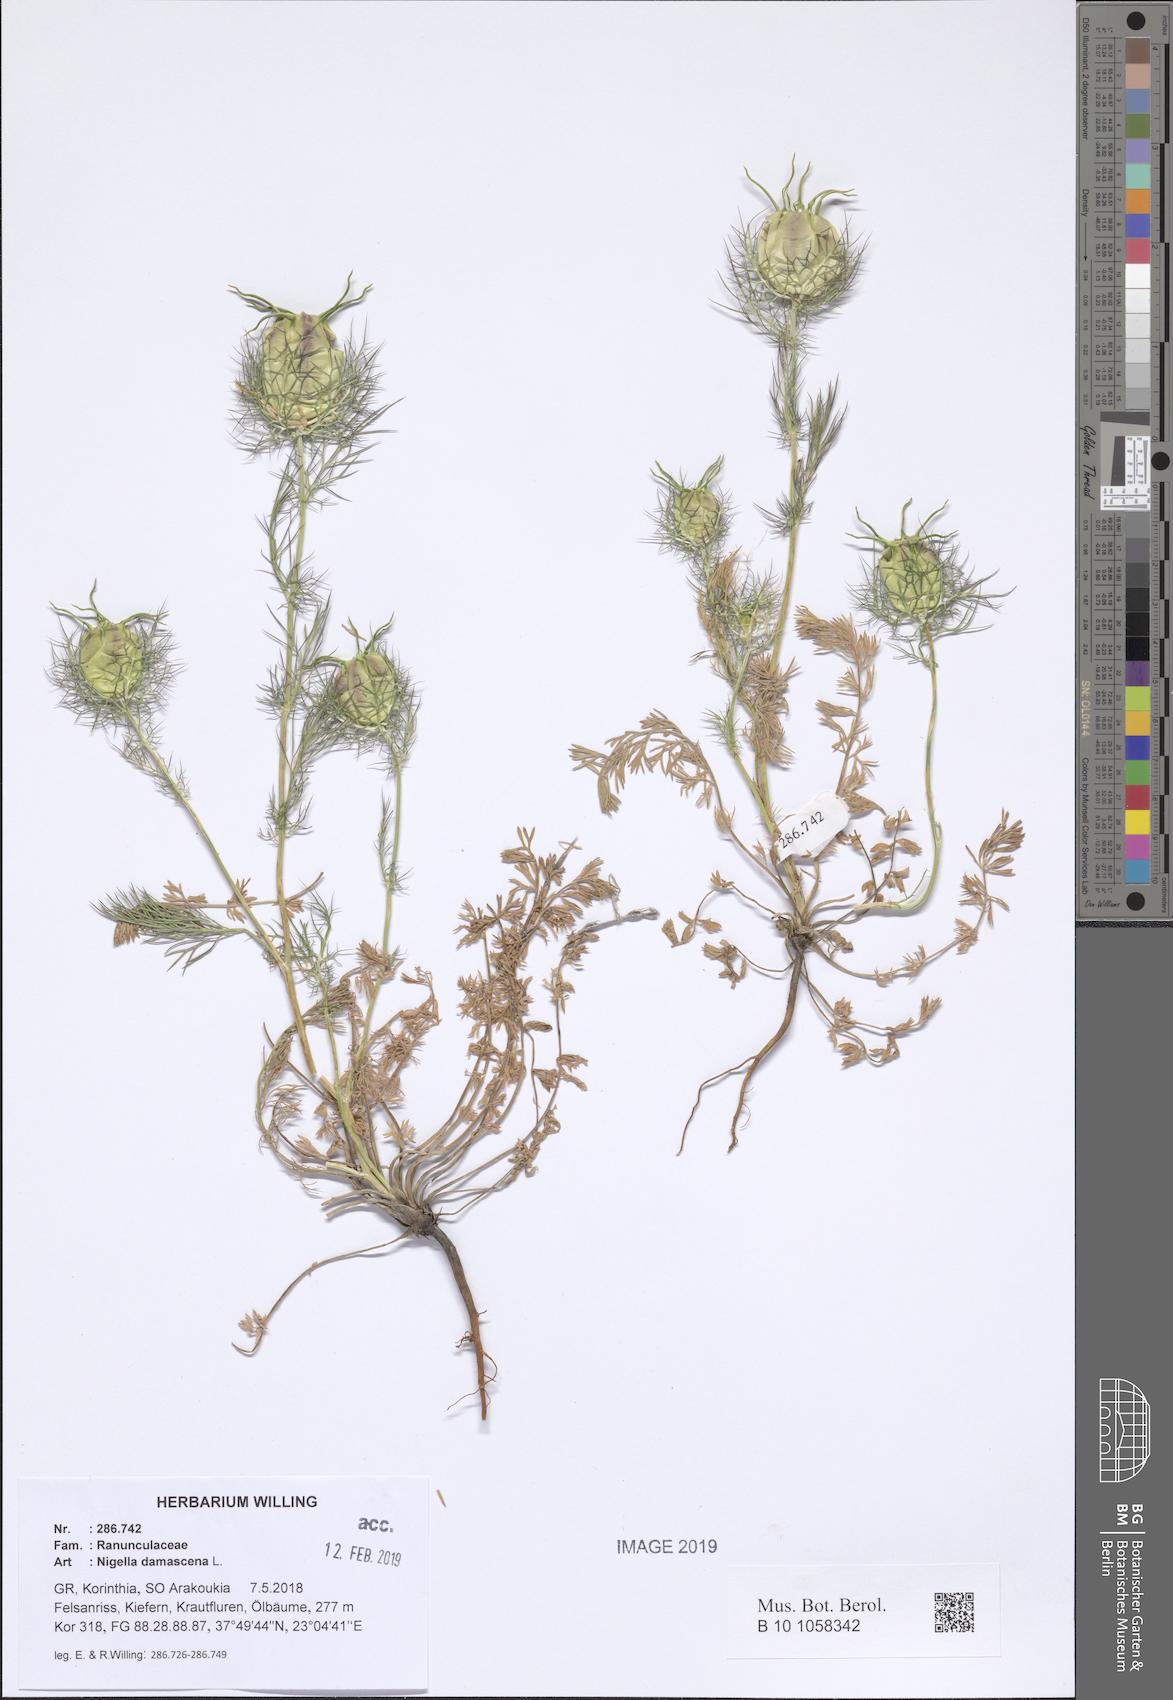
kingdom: Plantae
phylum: Tracheophyta
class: Magnoliopsida
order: Ranunculales
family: Ranunculaceae
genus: Nigella
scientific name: Nigella damascena
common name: Love-in-a-mist
